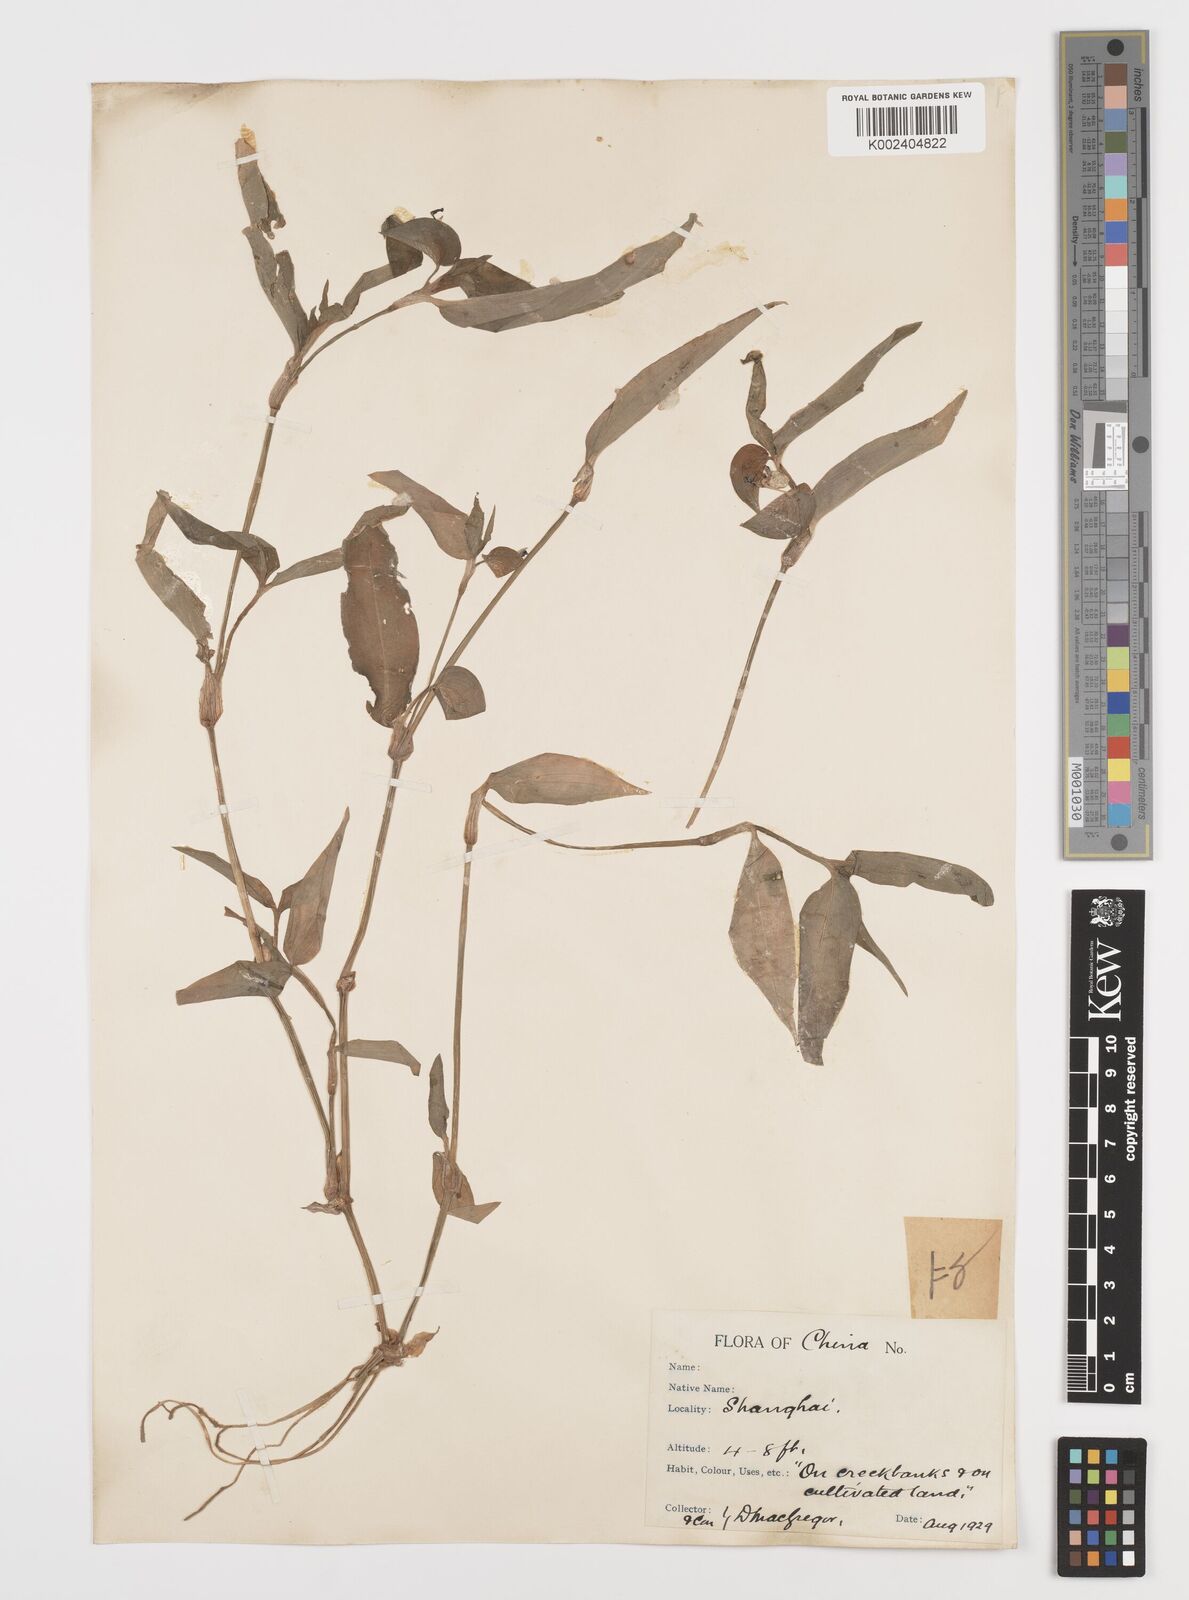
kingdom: Plantae
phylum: Tracheophyta
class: Liliopsida
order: Commelinales
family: Commelinaceae
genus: Commelina
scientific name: Commelina communis
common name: Asiatic dayflower
